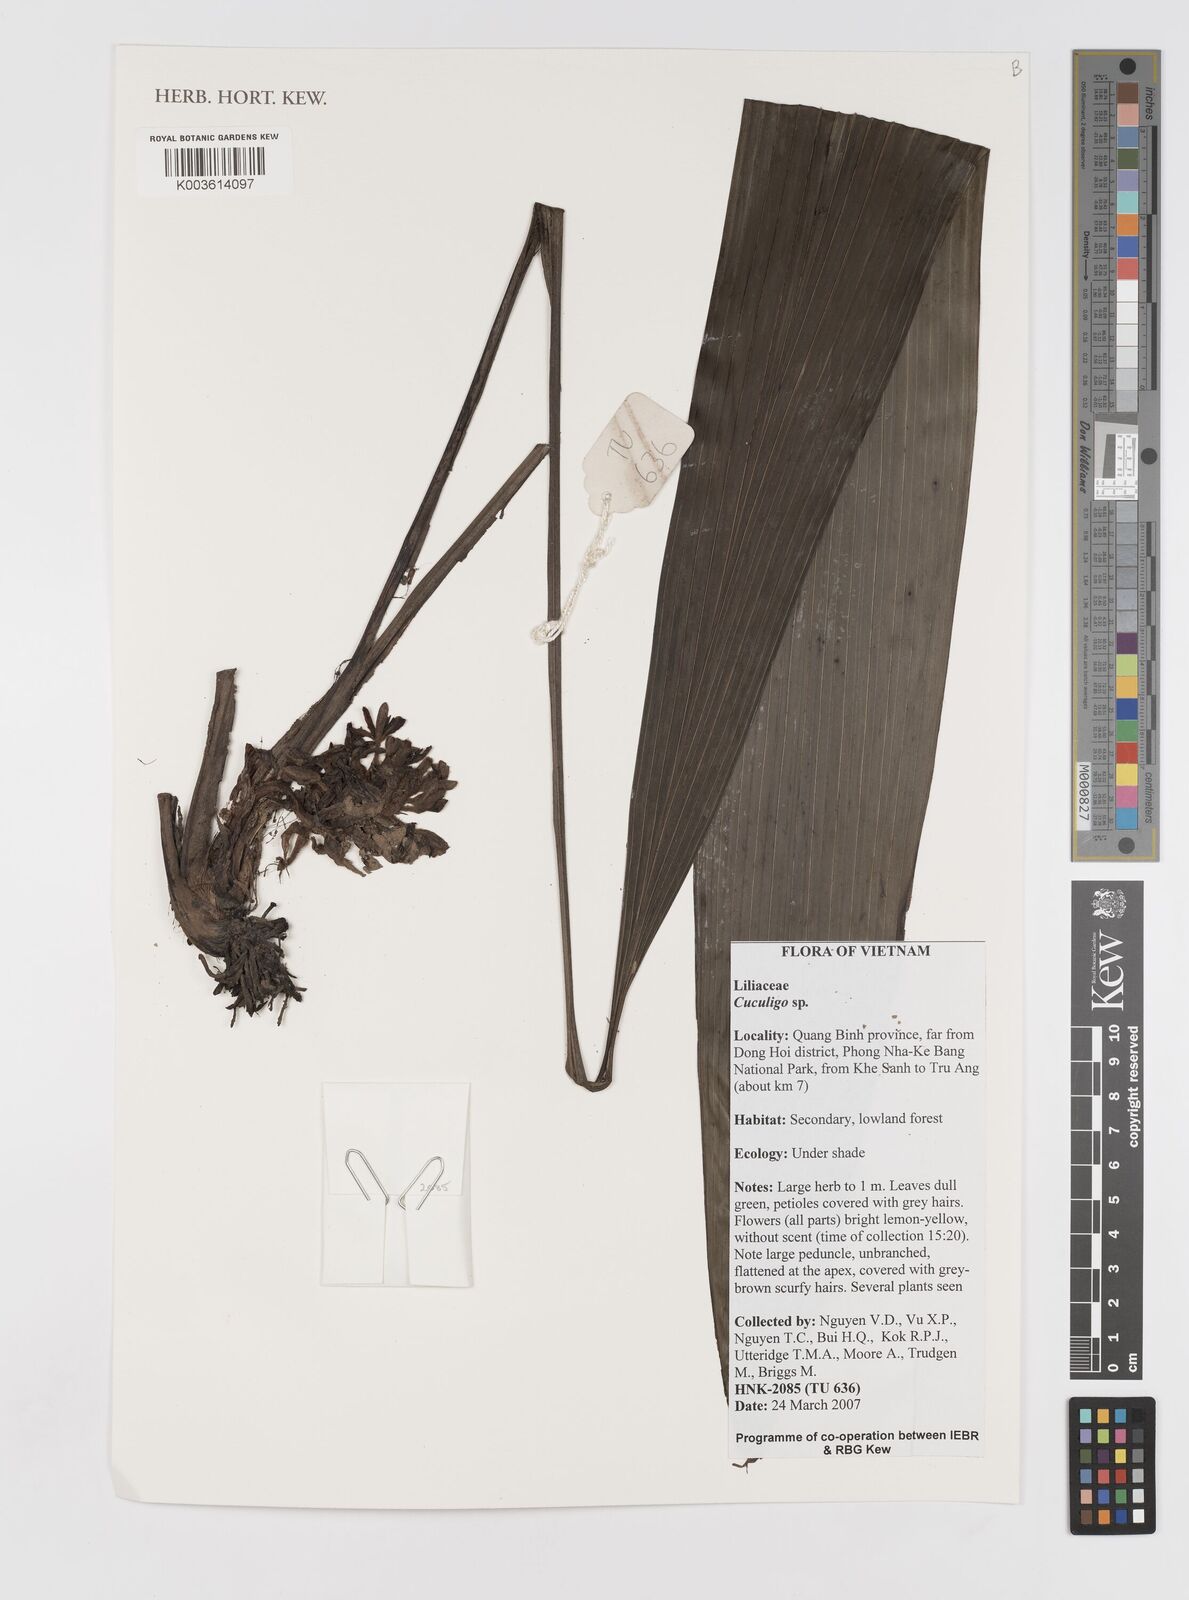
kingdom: Plantae
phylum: Tracheophyta
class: Liliopsida
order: Asparagales
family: Hypoxidaceae
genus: Curculigo
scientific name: Curculigo
